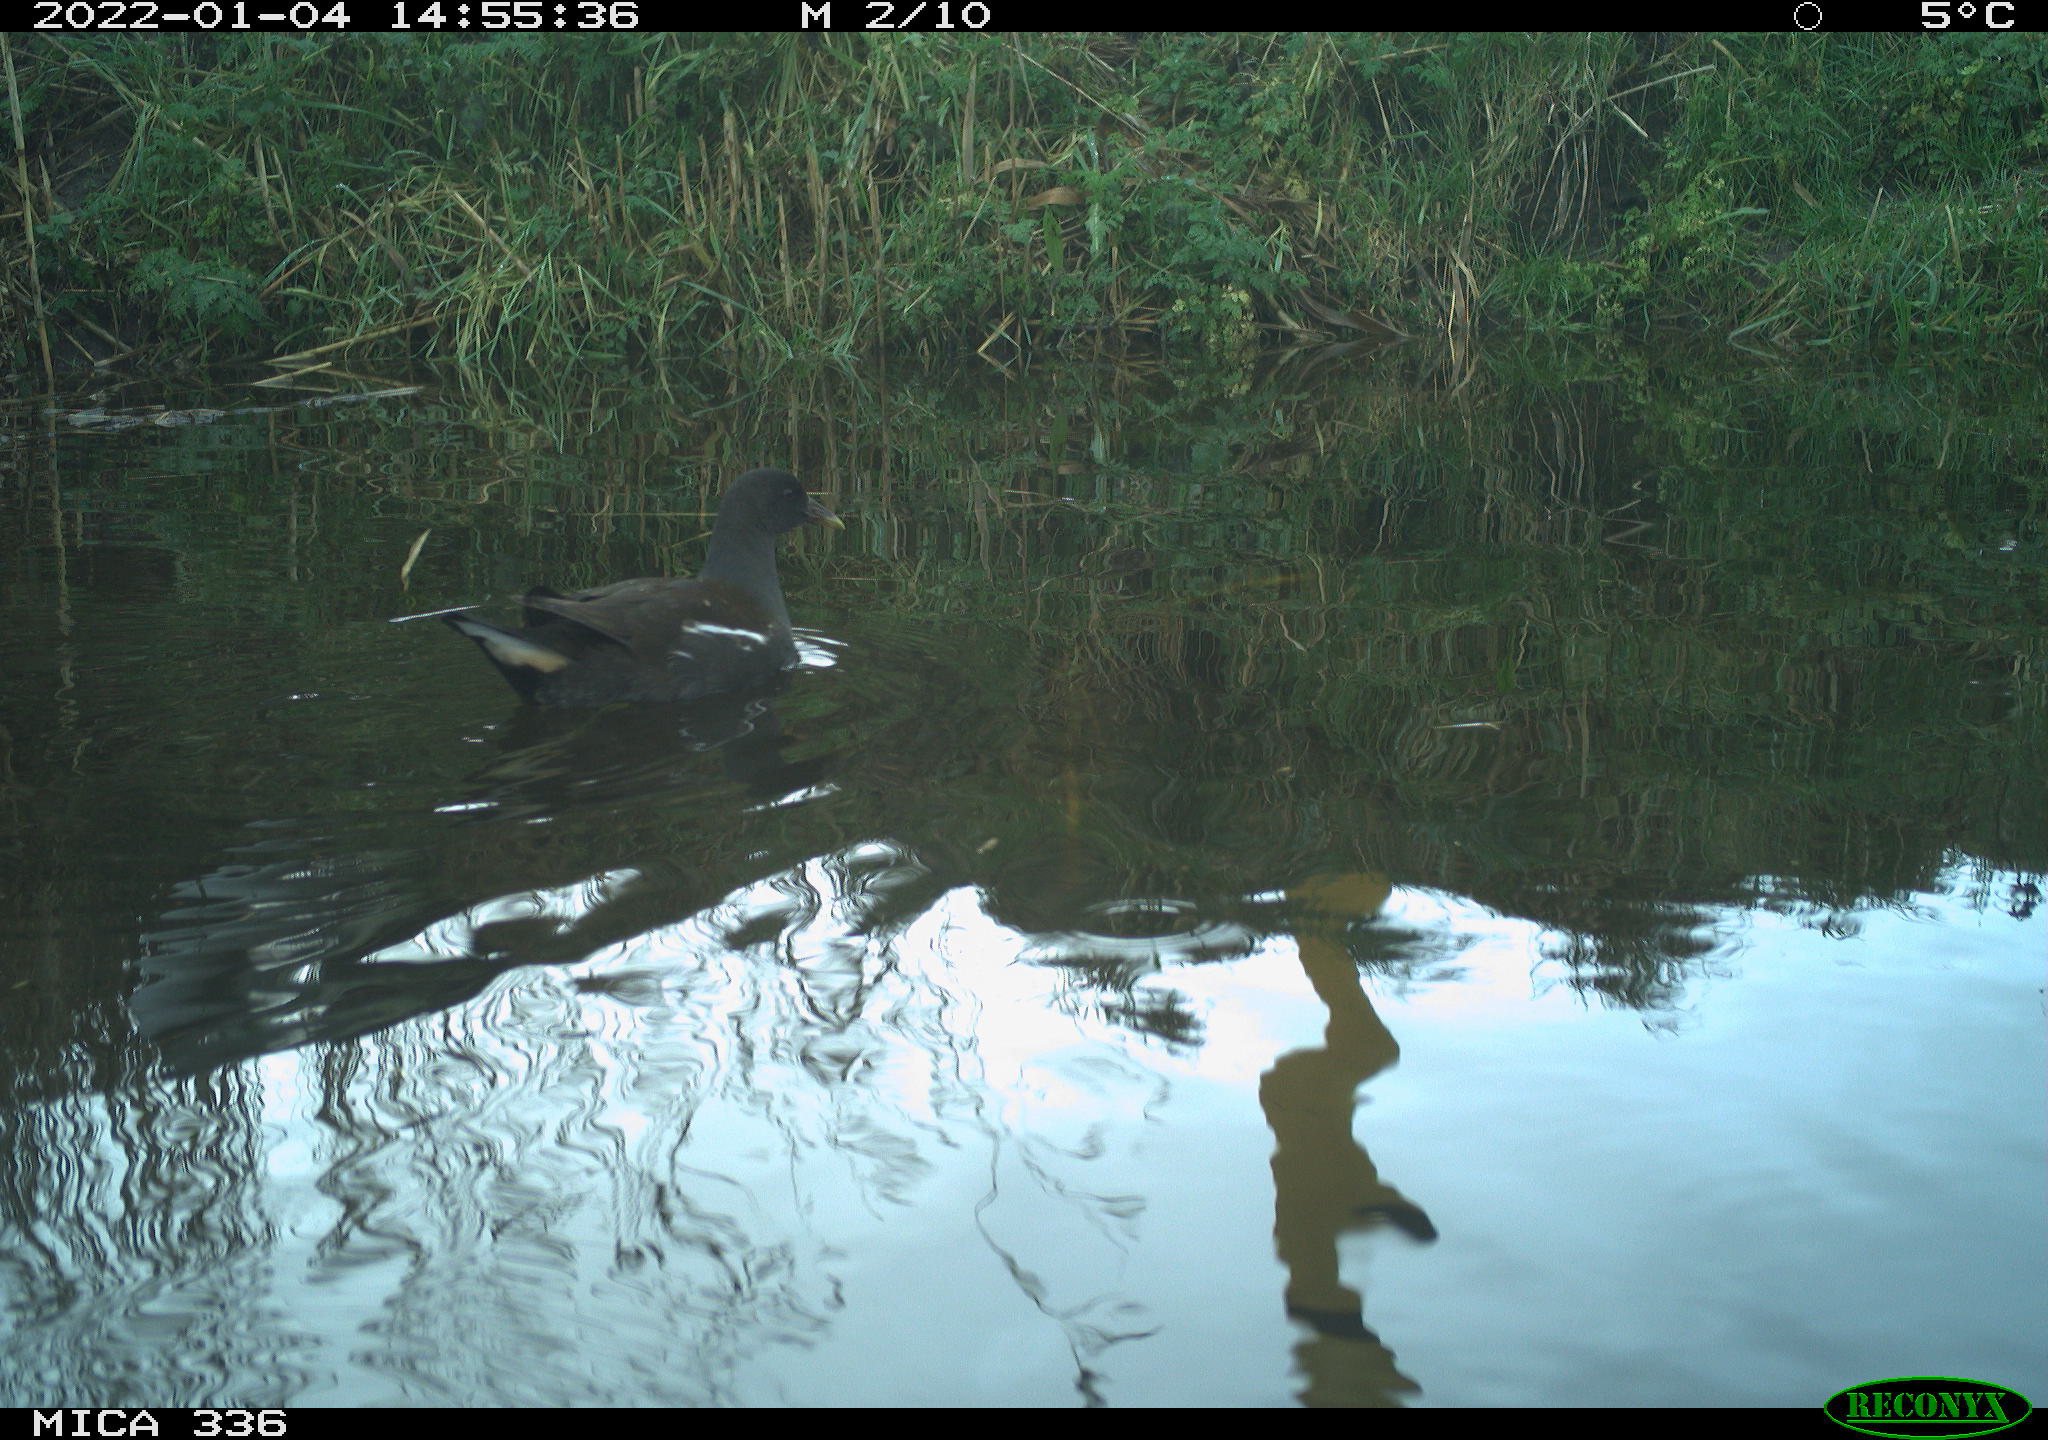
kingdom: Animalia
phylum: Chordata
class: Aves
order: Gruiformes
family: Rallidae
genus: Gallinula
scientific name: Gallinula chloropus
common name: Common moorhen
